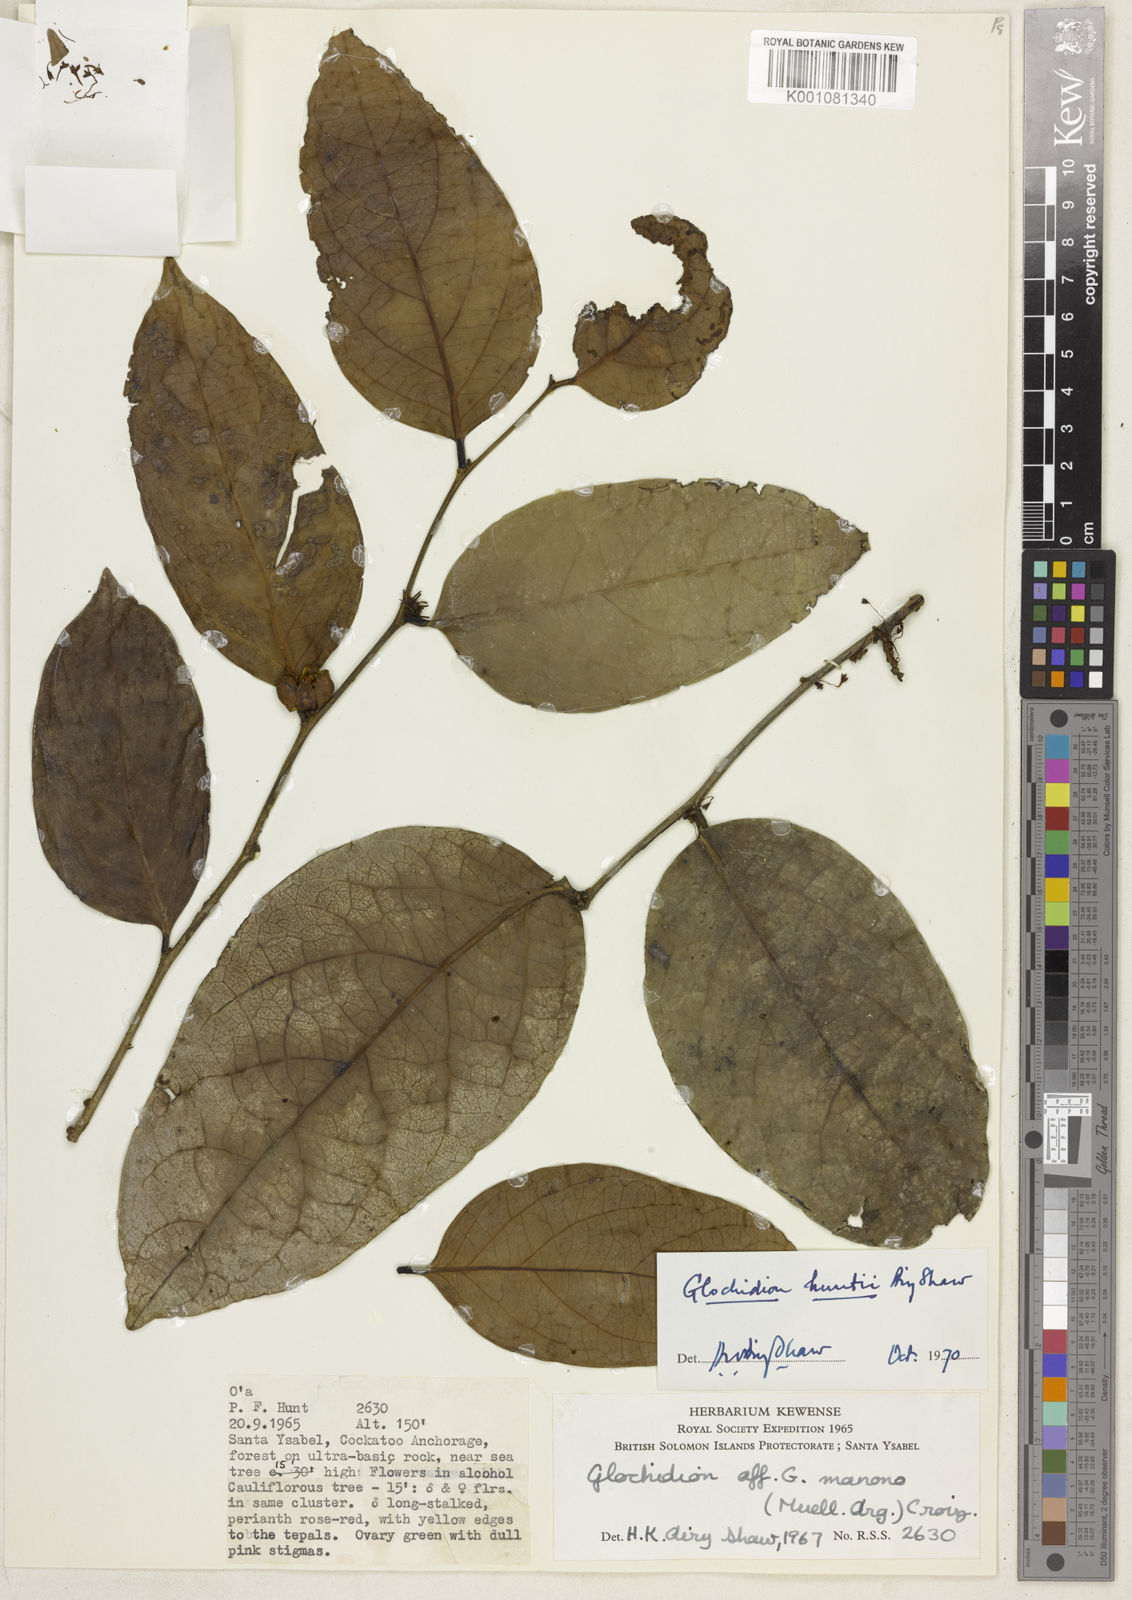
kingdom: Plantae
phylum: Tracheophyta
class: Magnoliopsida
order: Malpighiales
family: Phyllanthaceae
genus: Glochidion
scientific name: Glochidion huntii
